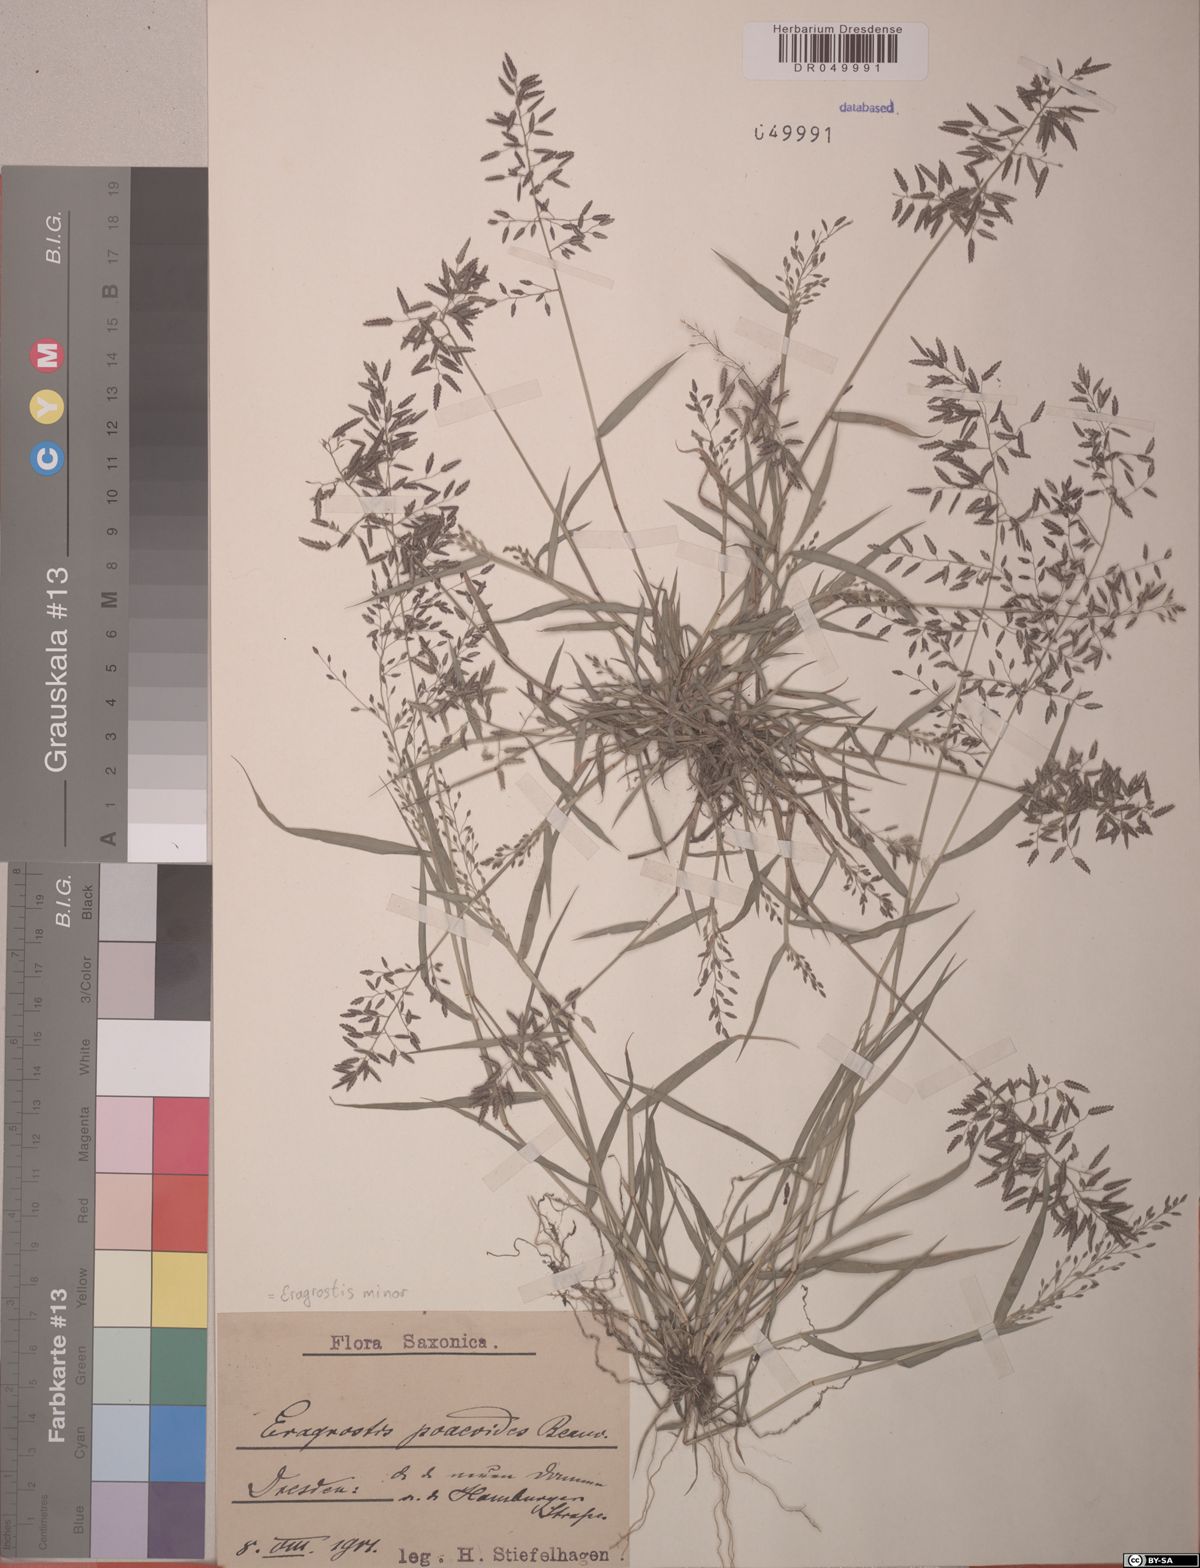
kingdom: Plantae
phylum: Tracheophyta
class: Liliopsida
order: Poales
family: Poaceae
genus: Eragrostis
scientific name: Eragrostis minor
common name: Small love-grass
